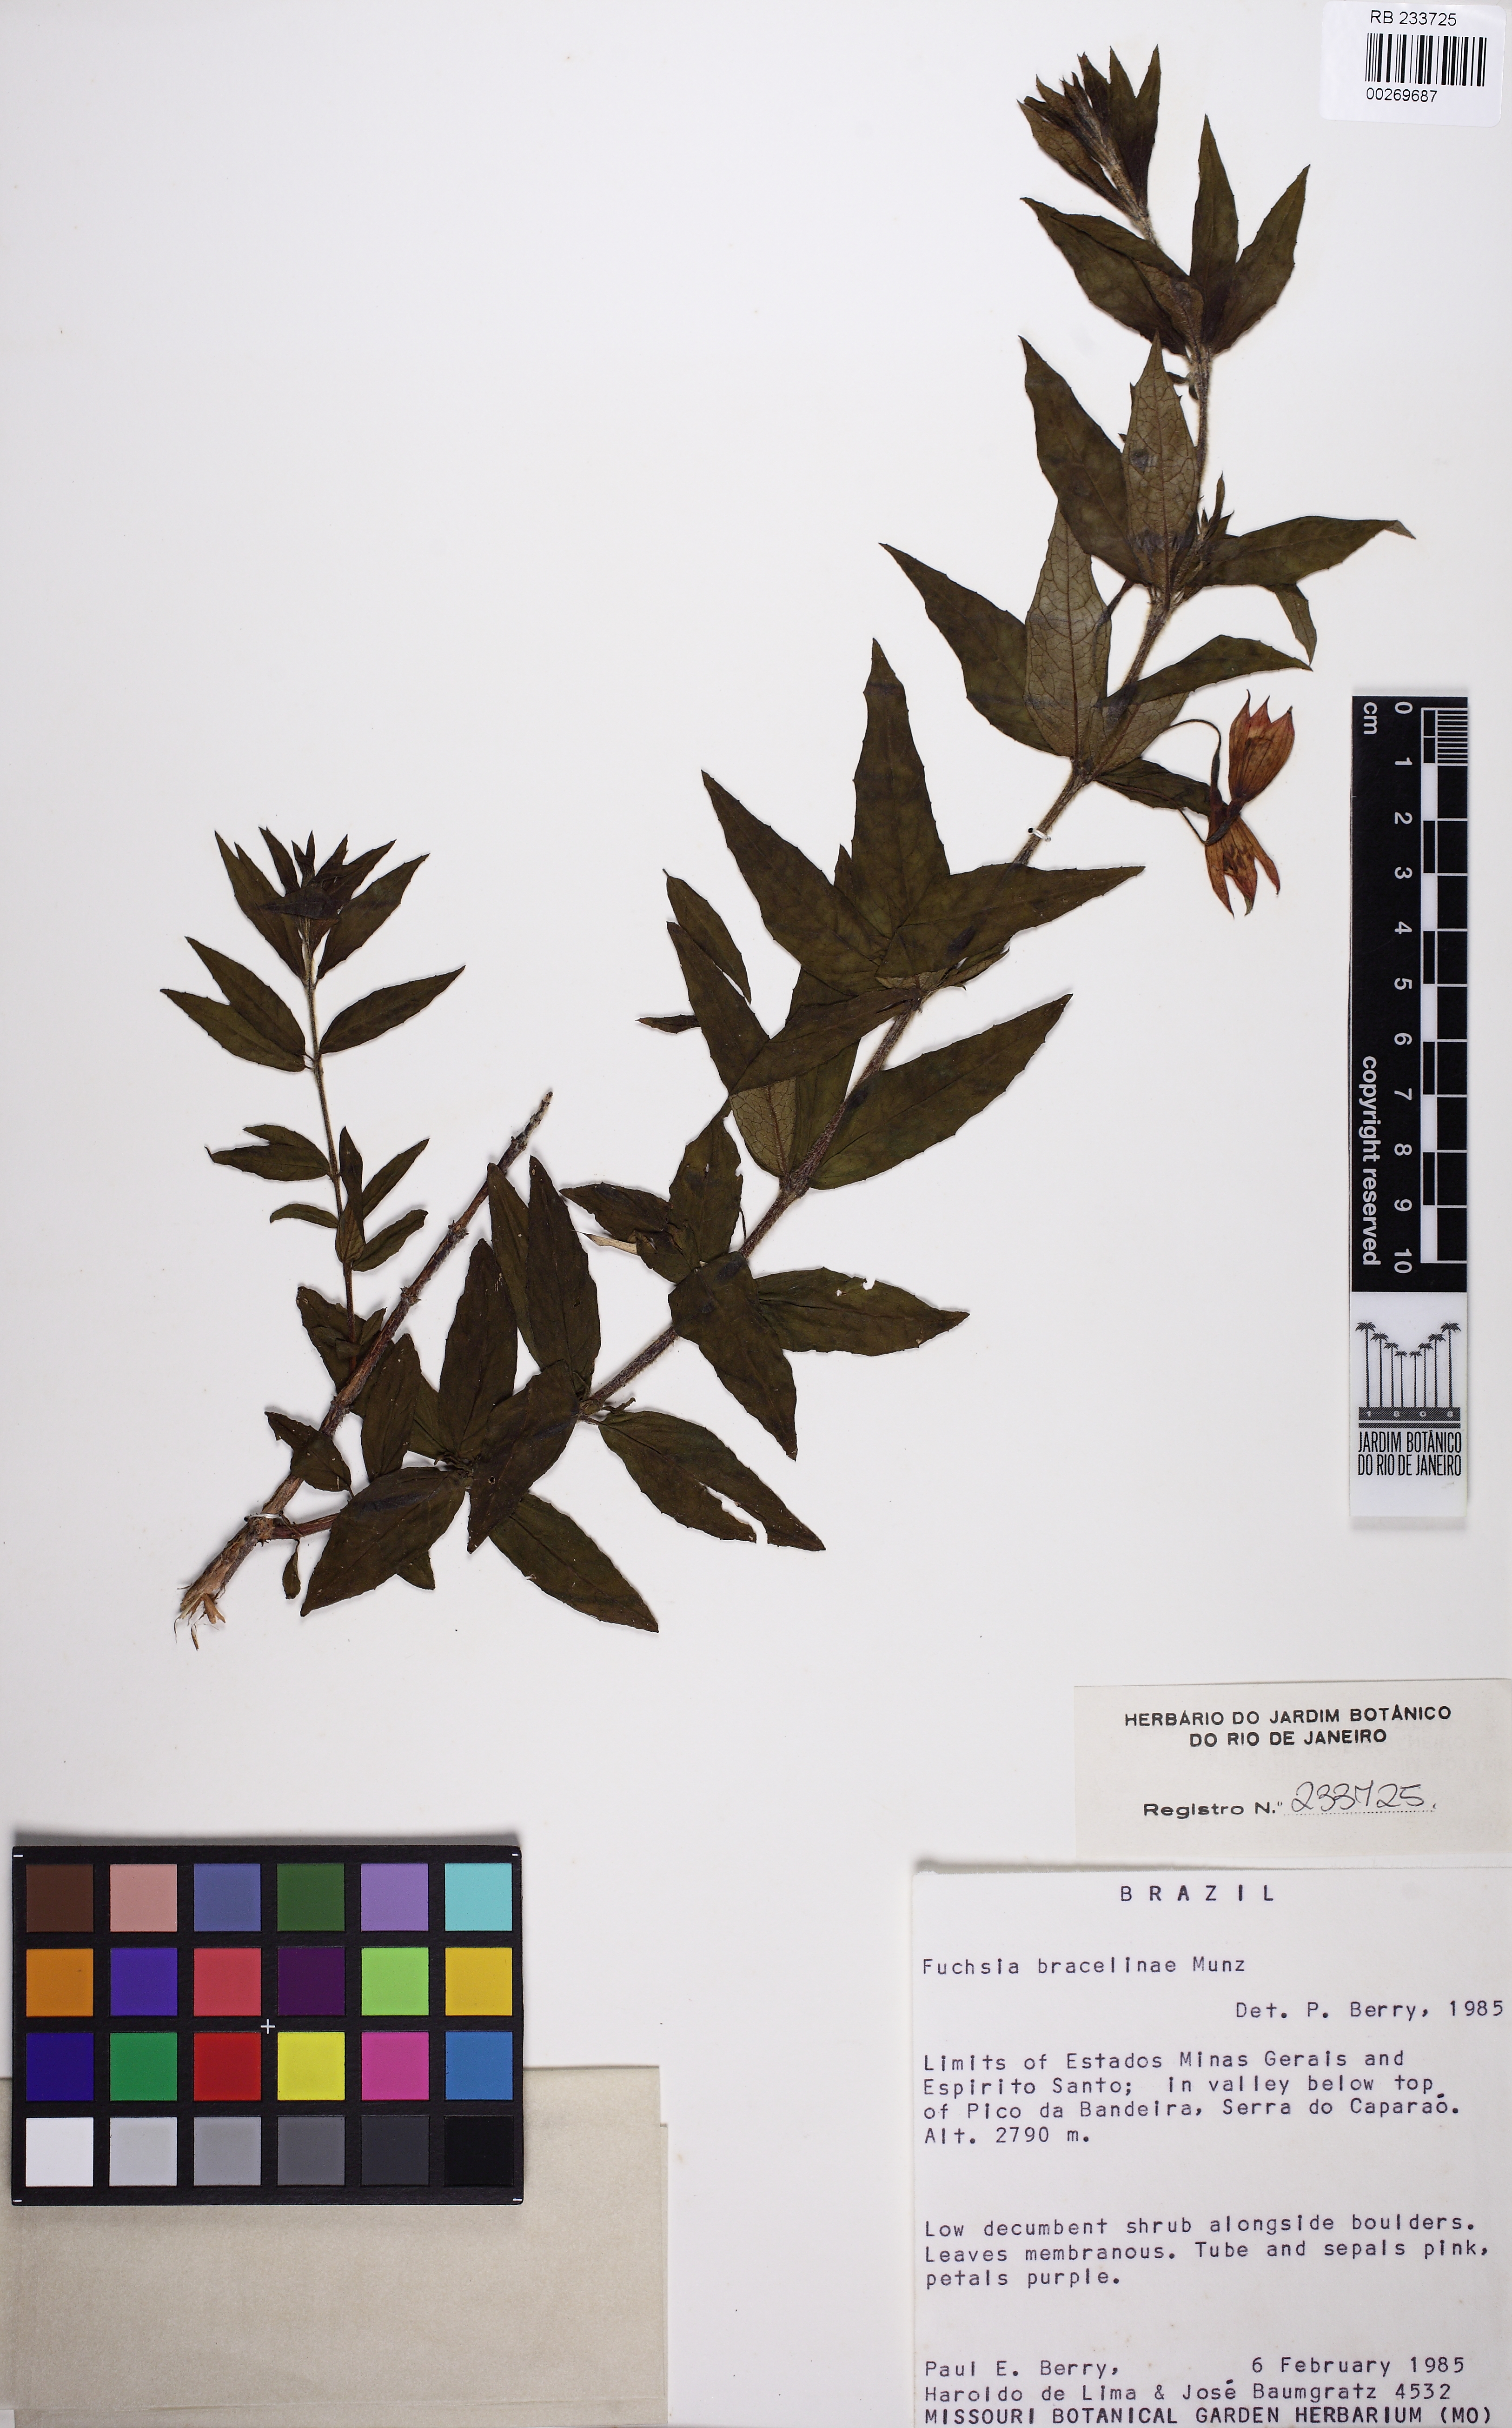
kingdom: Plantae
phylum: Tracheophyta
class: Magnoliopsida
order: Myrtales
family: Onagraceae
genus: Fuchsia
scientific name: Fuchsia bracelinae
